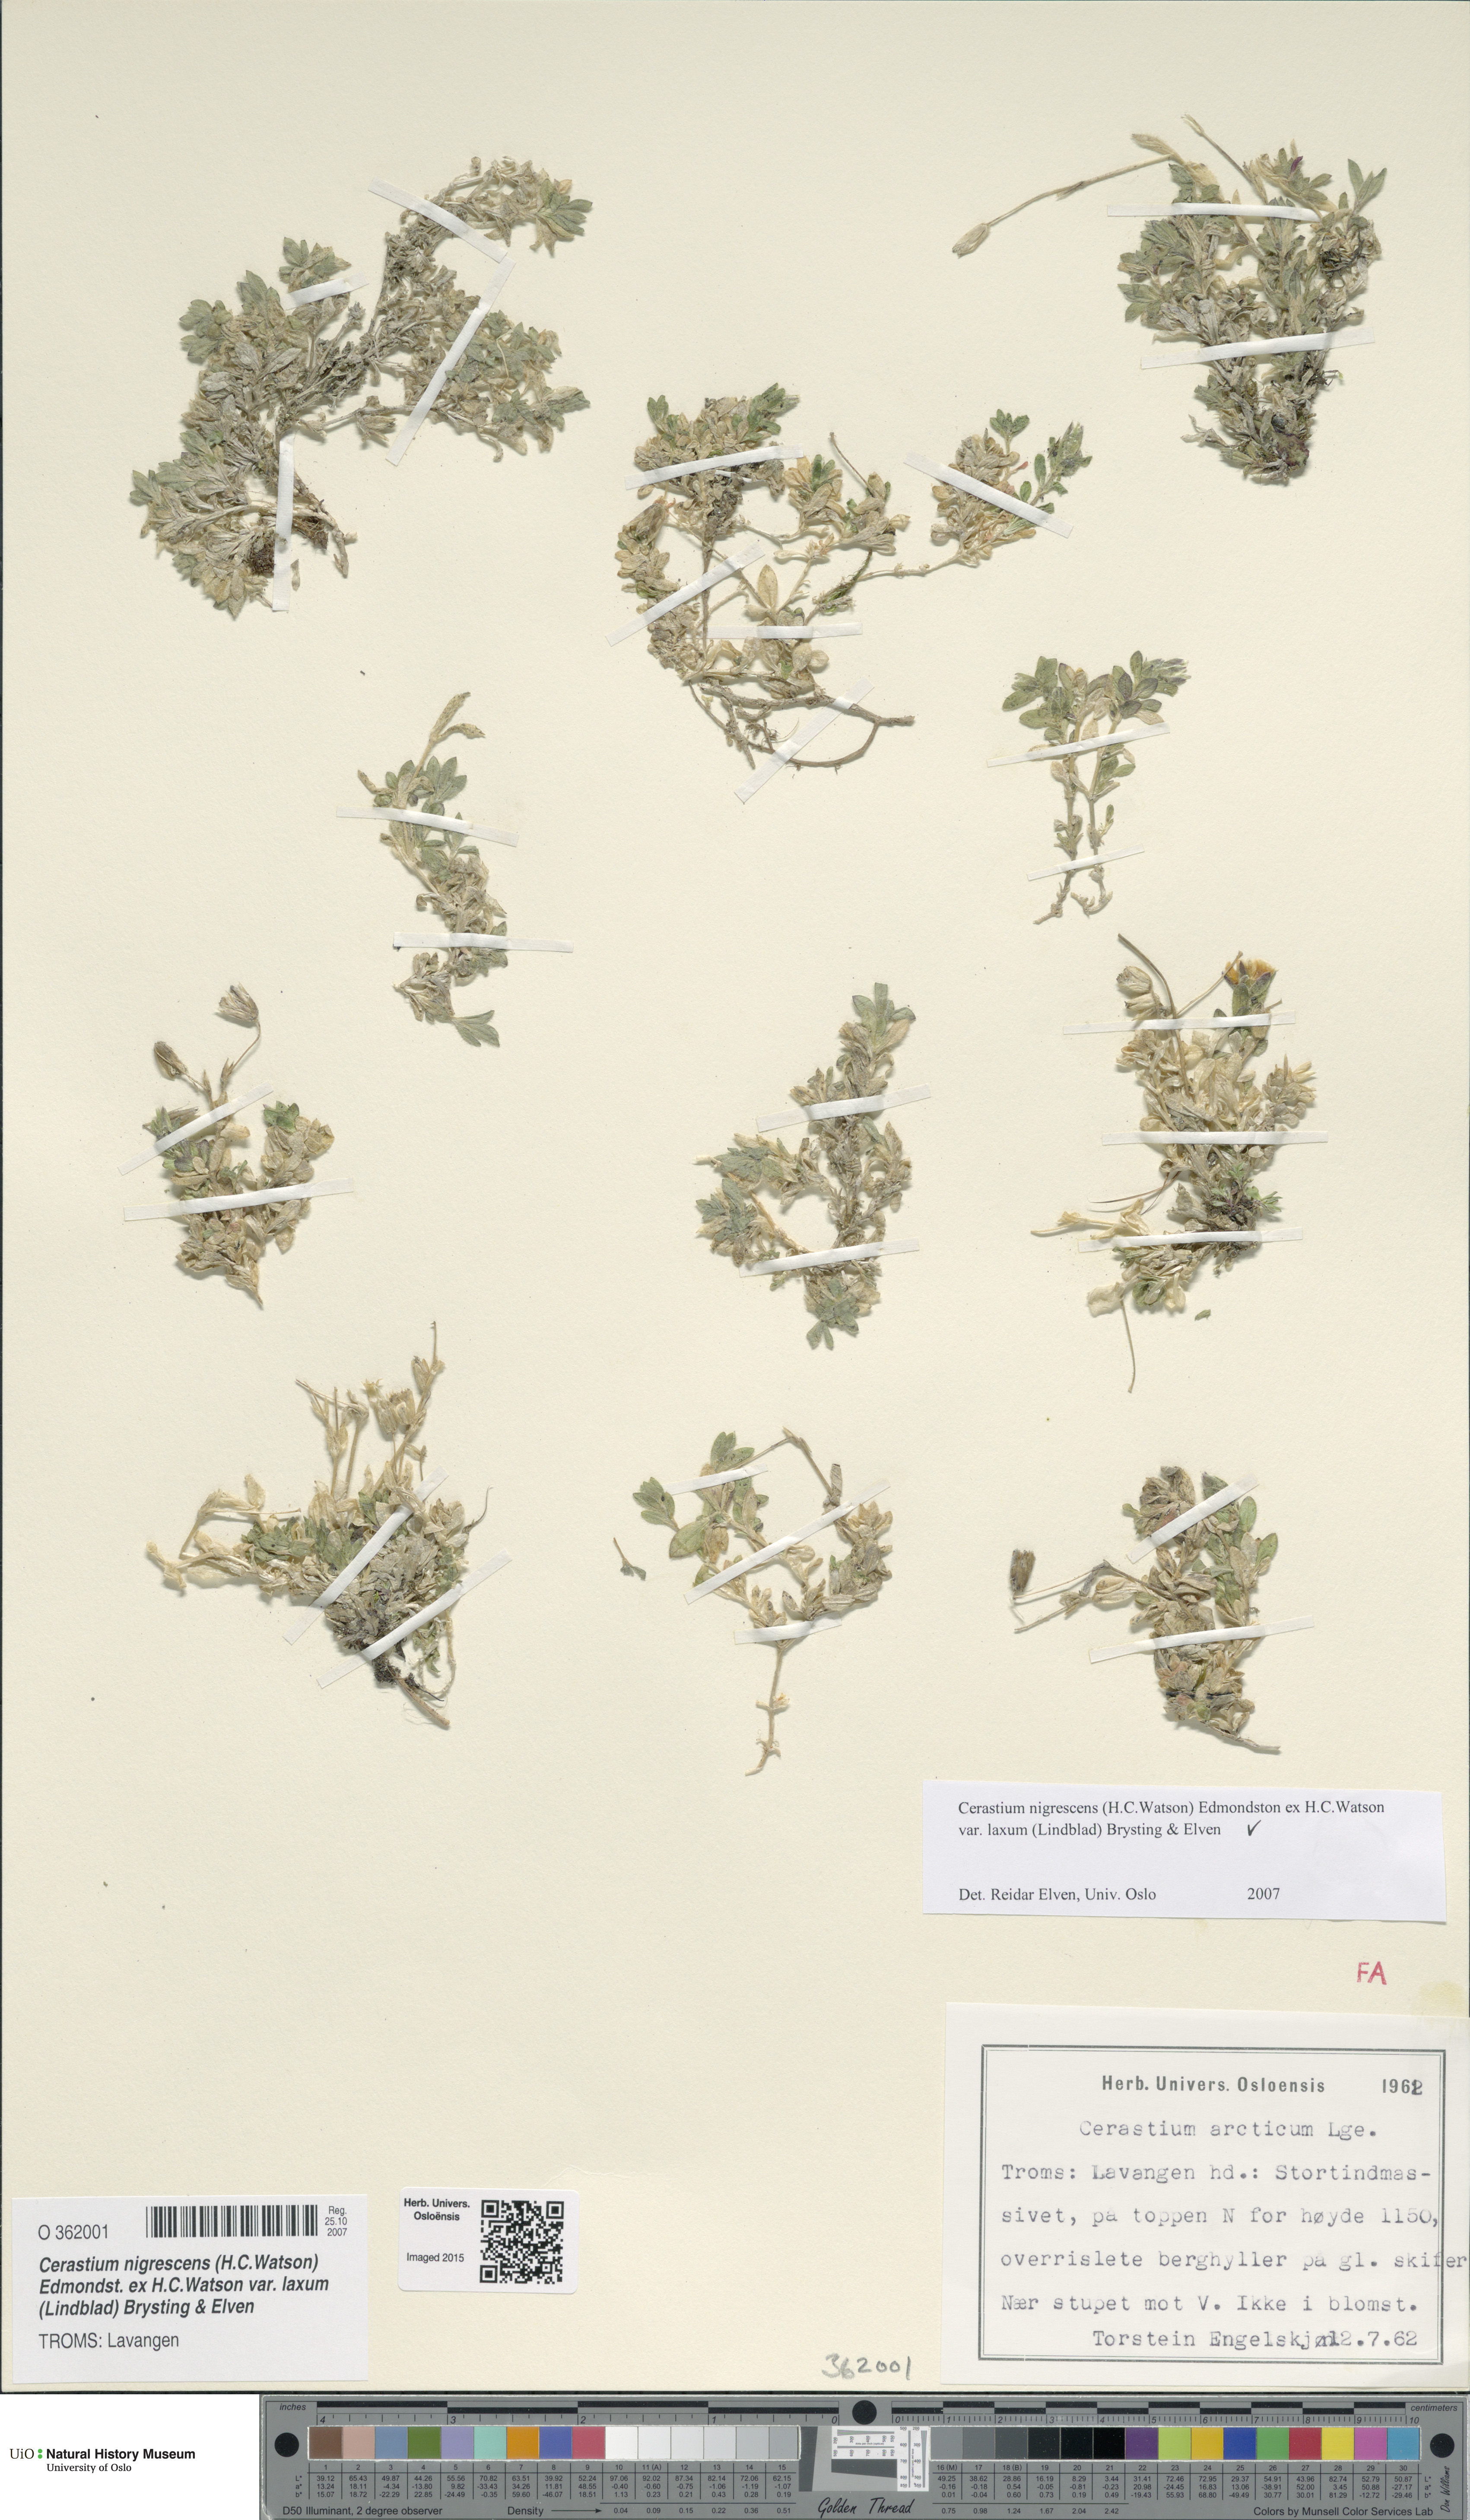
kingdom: Plantae
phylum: Tracheophyta
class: Magnoliopsida
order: Caryophyllales
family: Caryophyllaceae
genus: Cerastium
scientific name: Cerastium nigrescens
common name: Shetland mouse-ear
